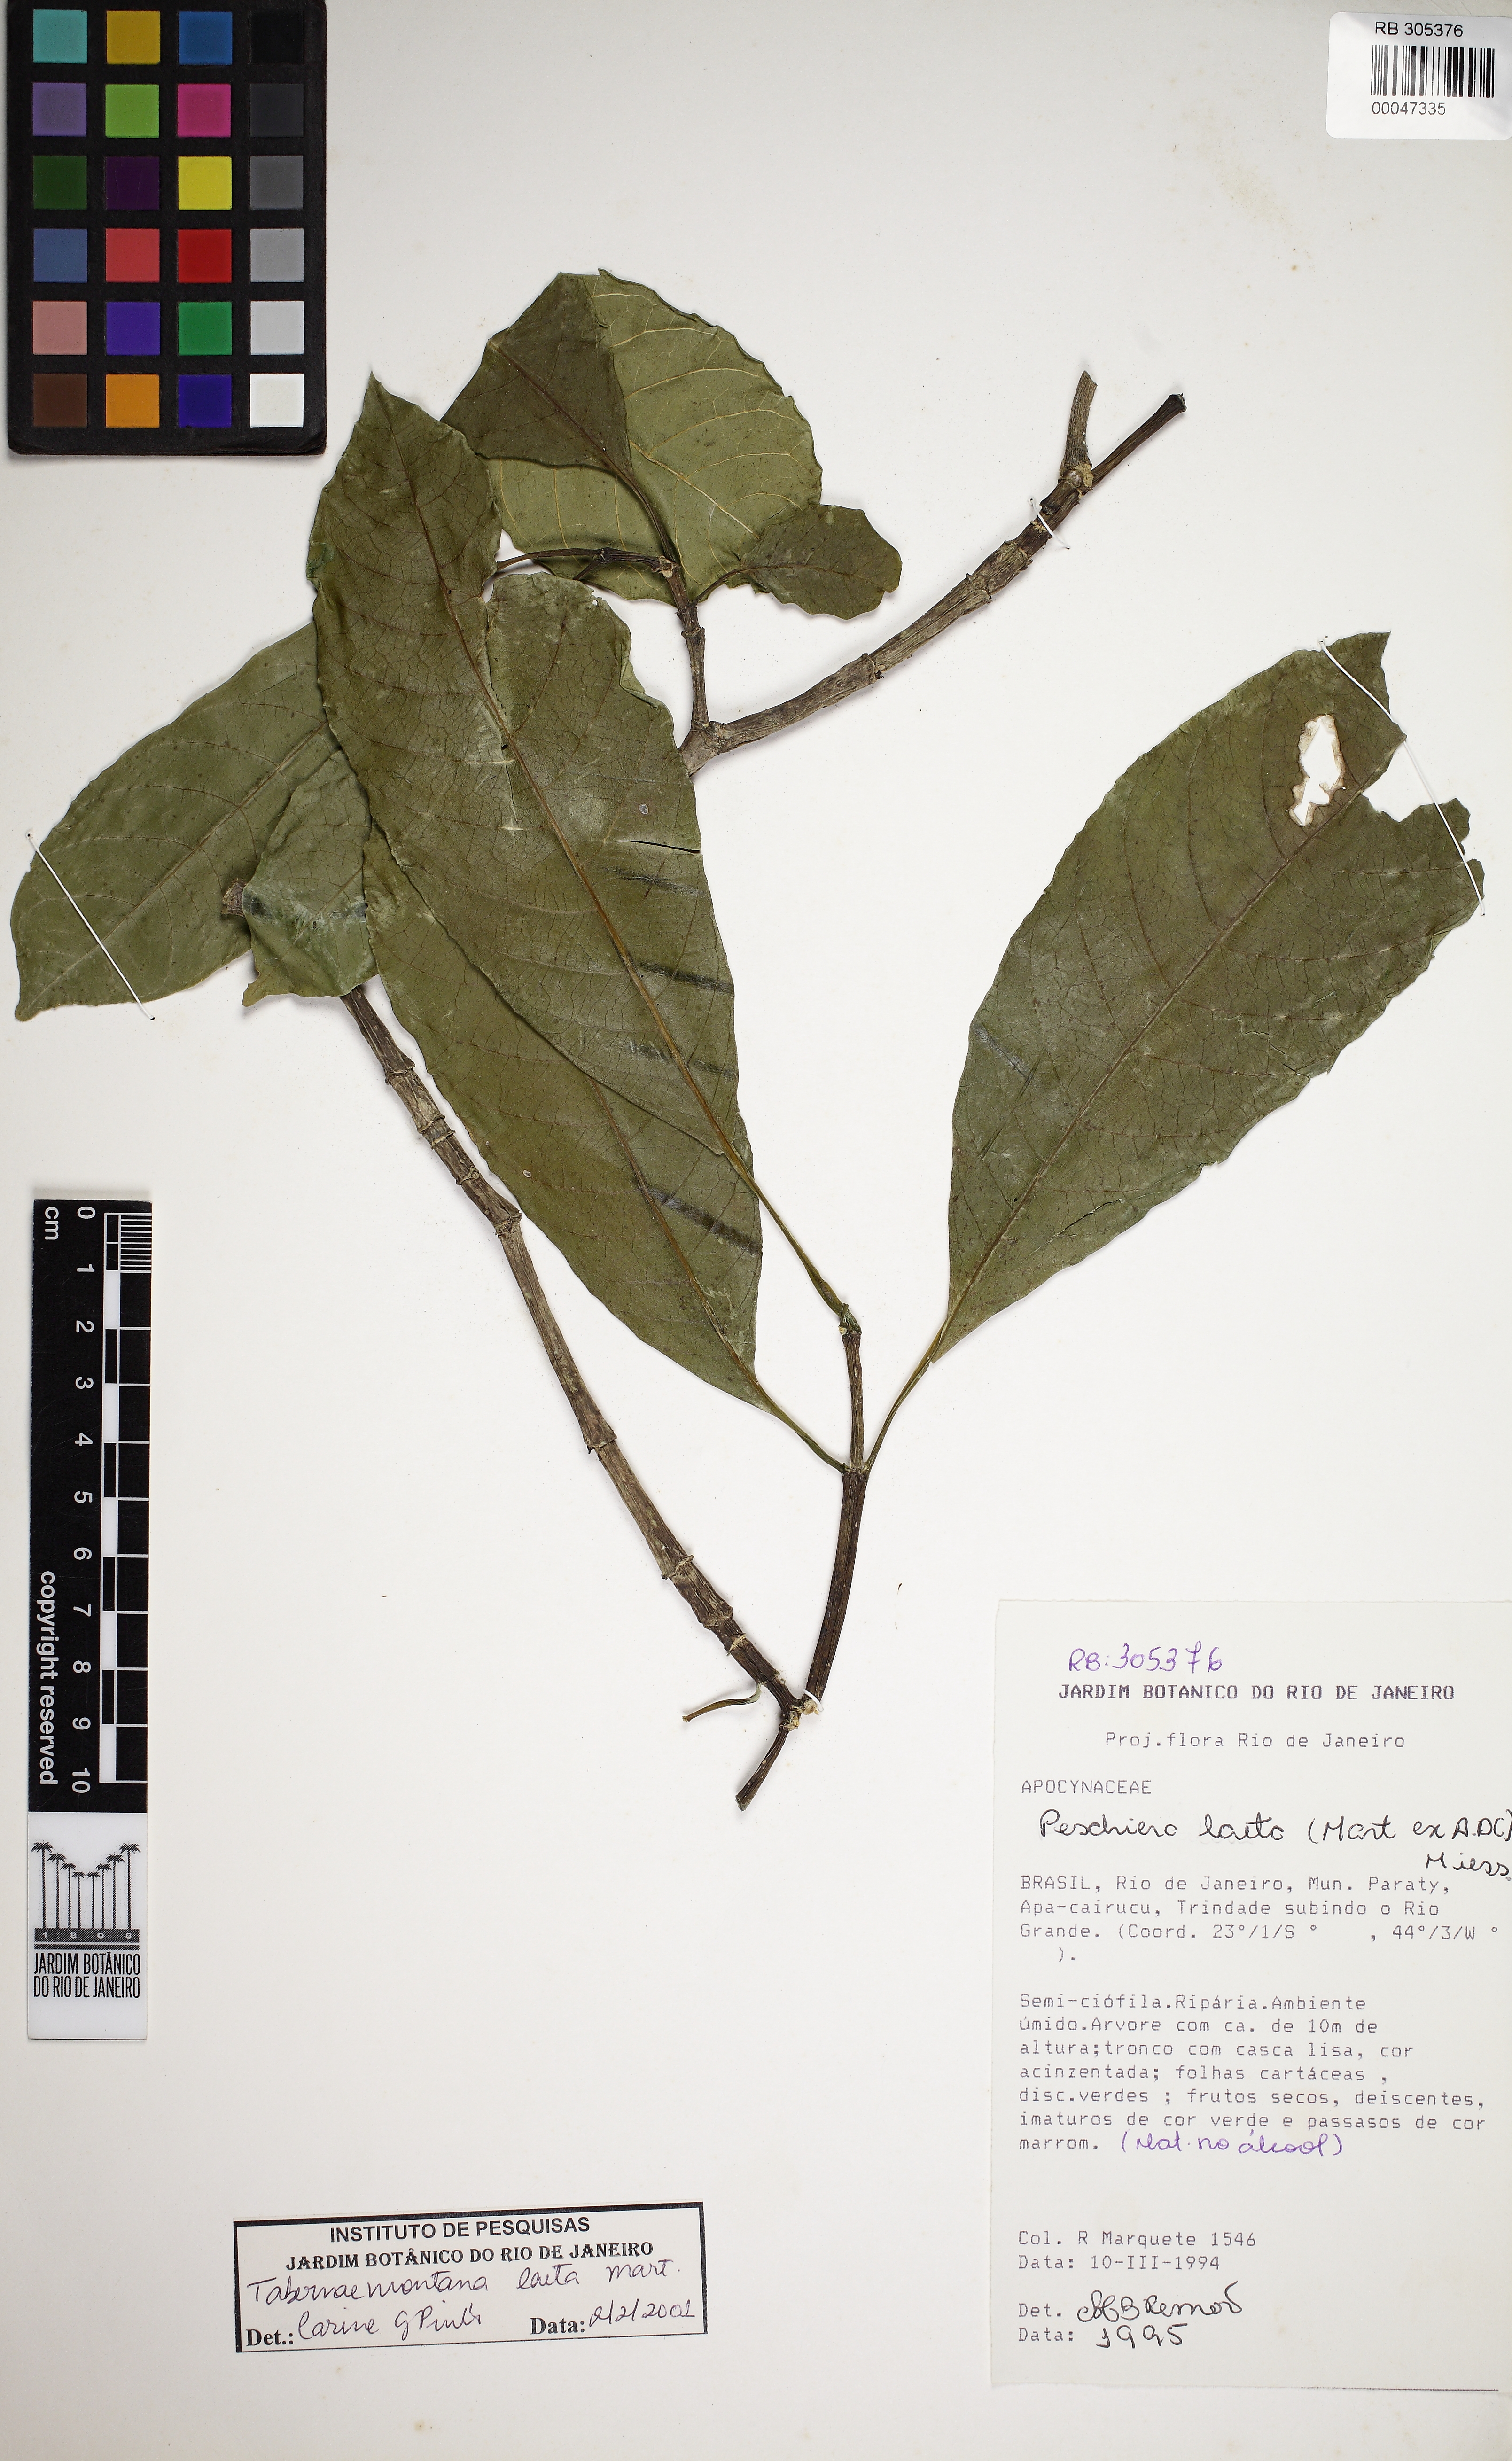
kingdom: Plantae
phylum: Tracheophyta
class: Magnoliopsida
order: Gentianales
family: Apocynaceae
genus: Tabernaemontana
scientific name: Tabernaemontana laeta
